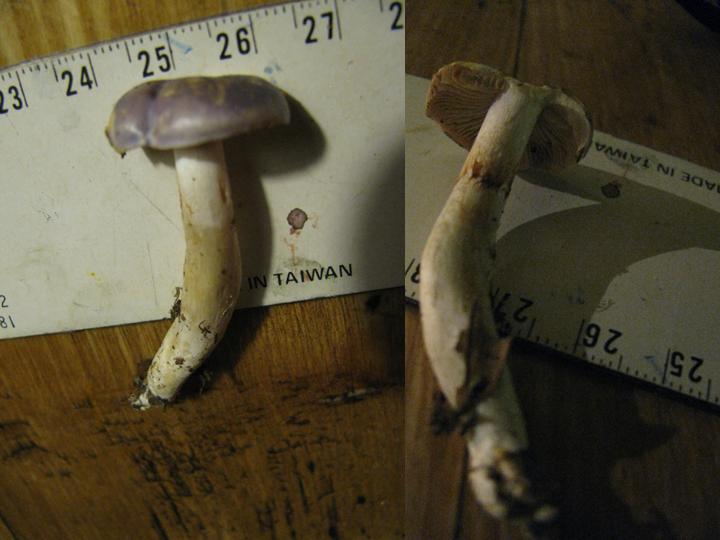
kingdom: Fungi
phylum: Basidiomycota
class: Agaricomycetes
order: Agaricales
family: Cortinariaceae
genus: Thaxterogaster
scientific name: Thaxterogaster croceocoeruleus
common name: blågullig slørhat
